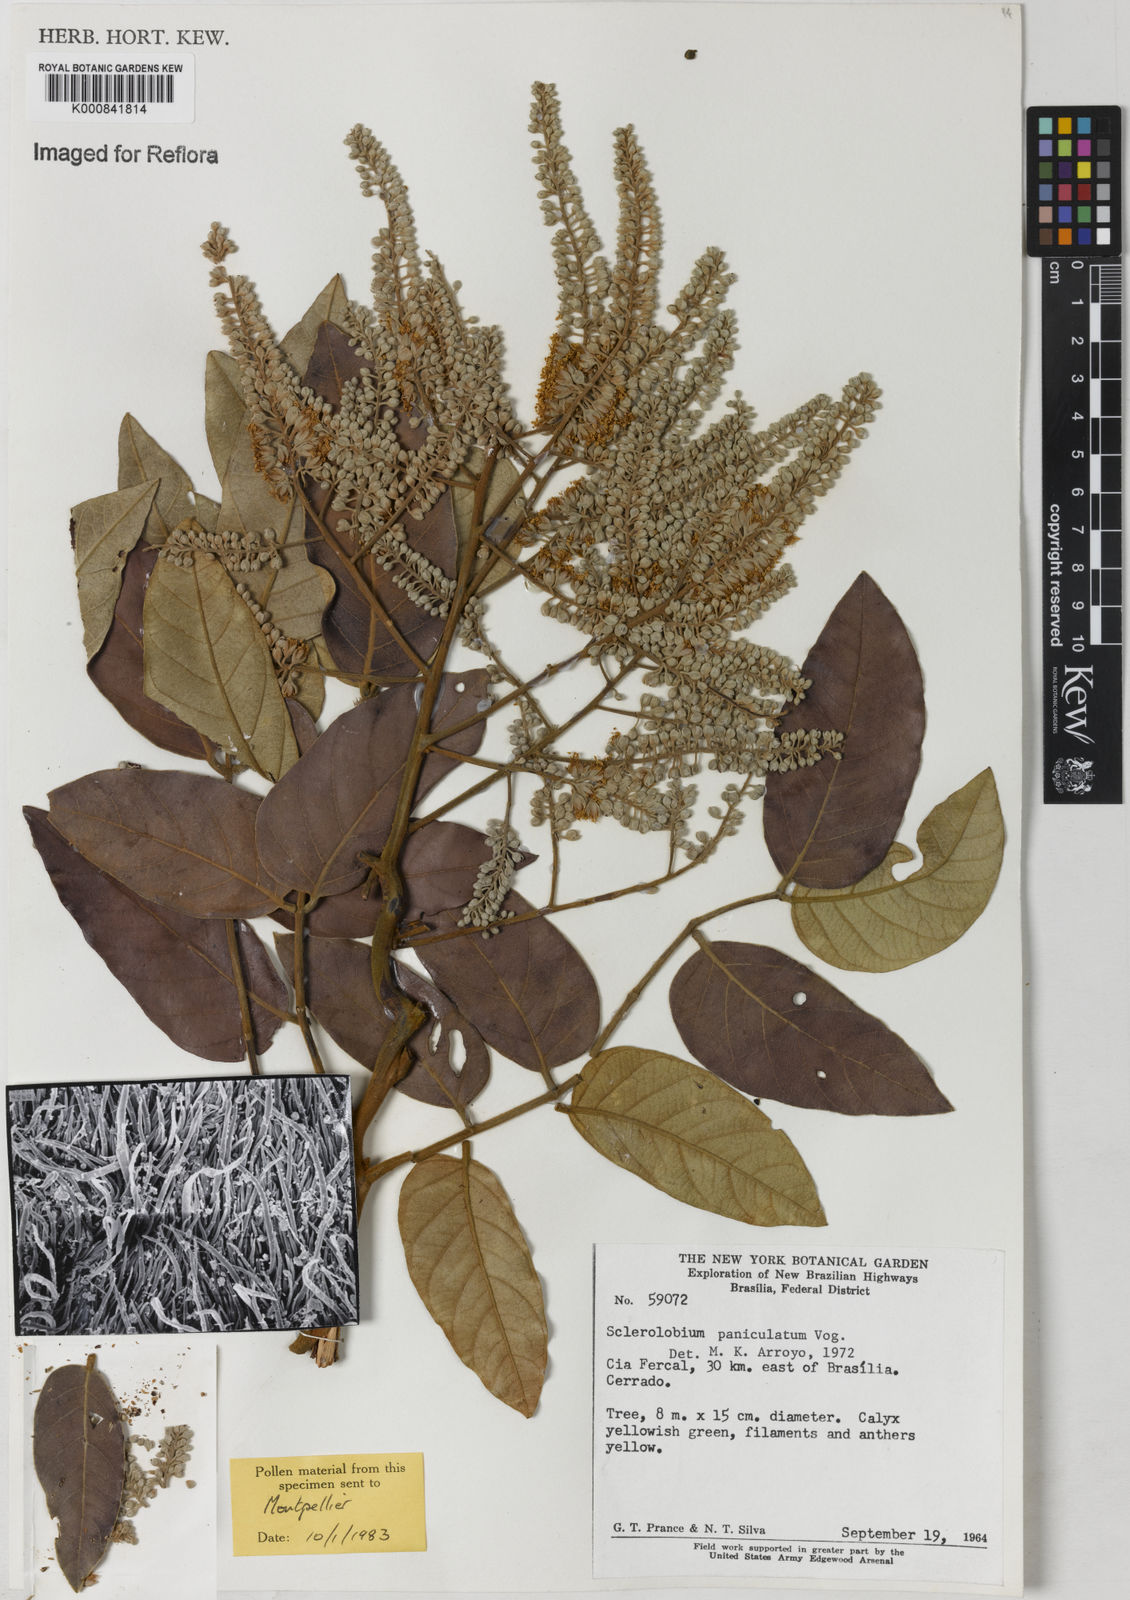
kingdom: Plantae
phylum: Tracheophyta
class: Magnoliopsida
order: Fabales
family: Fabaceae
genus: Tachigali
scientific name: Tachigali subvelutina
